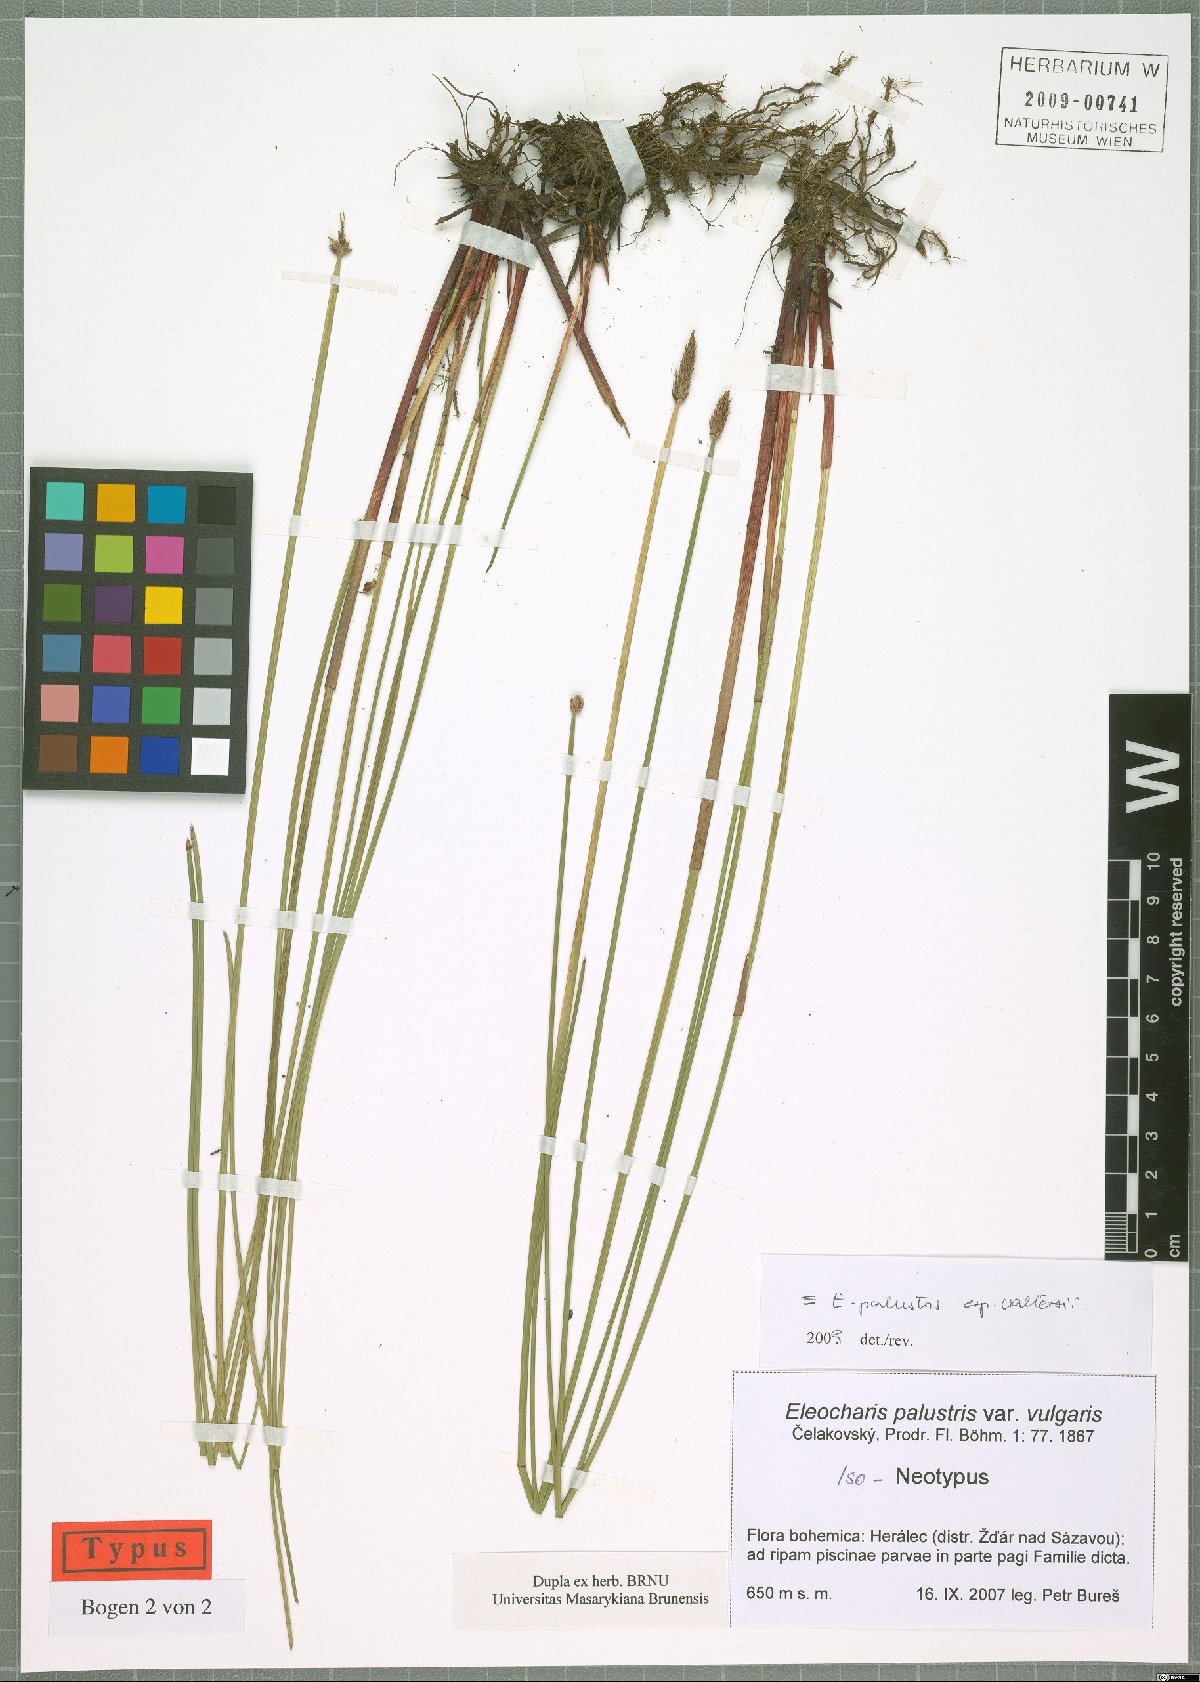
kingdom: Plantae
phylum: Tracheophyta
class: Liliopsida
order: Poales
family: Cyperaceae
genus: Eleocharis
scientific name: Eleocharis palustris
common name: Common spike-rush
